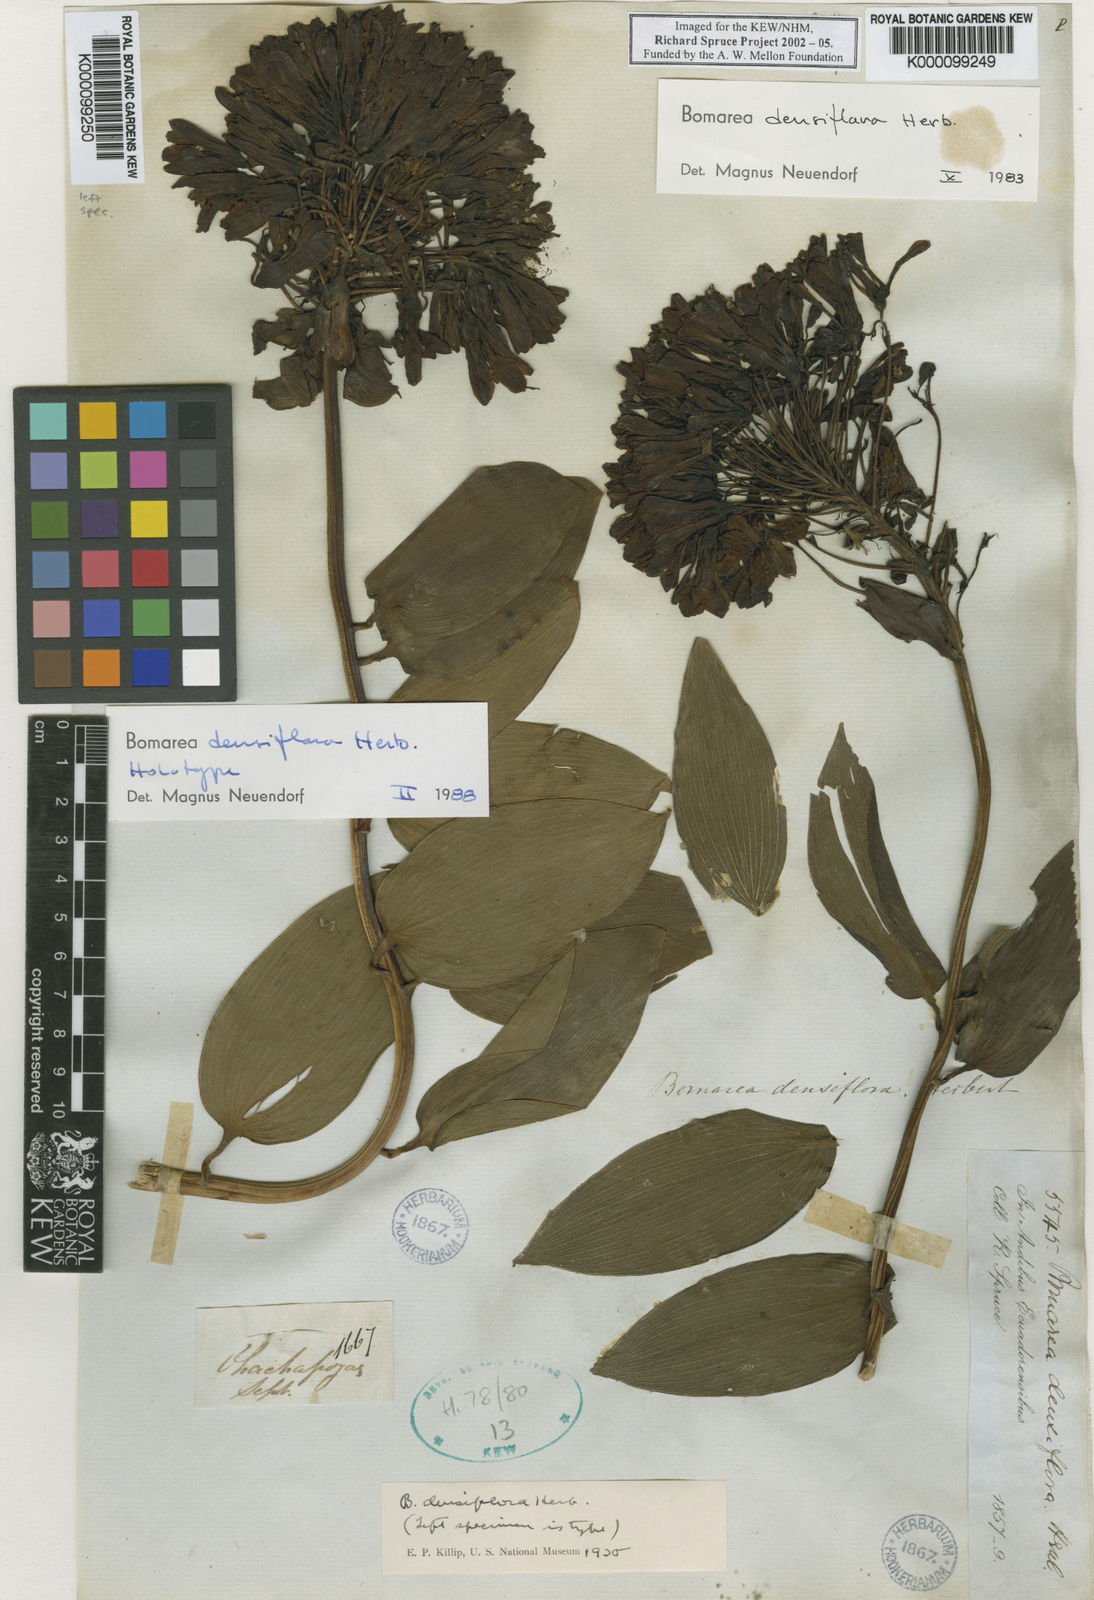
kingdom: Plantae
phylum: Tracheophyta
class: Liliopsida
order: Liliales
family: Alstroemeriaceae
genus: Bomarea
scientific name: Bomarea densiflora
